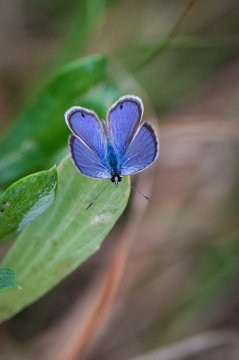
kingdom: Animalia
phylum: Arthropoda
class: Insecta
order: Lepidoptera
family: Lycaenidae
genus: Hemiargus
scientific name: Hemiargus ceraunus
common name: Ceraunus Blue
